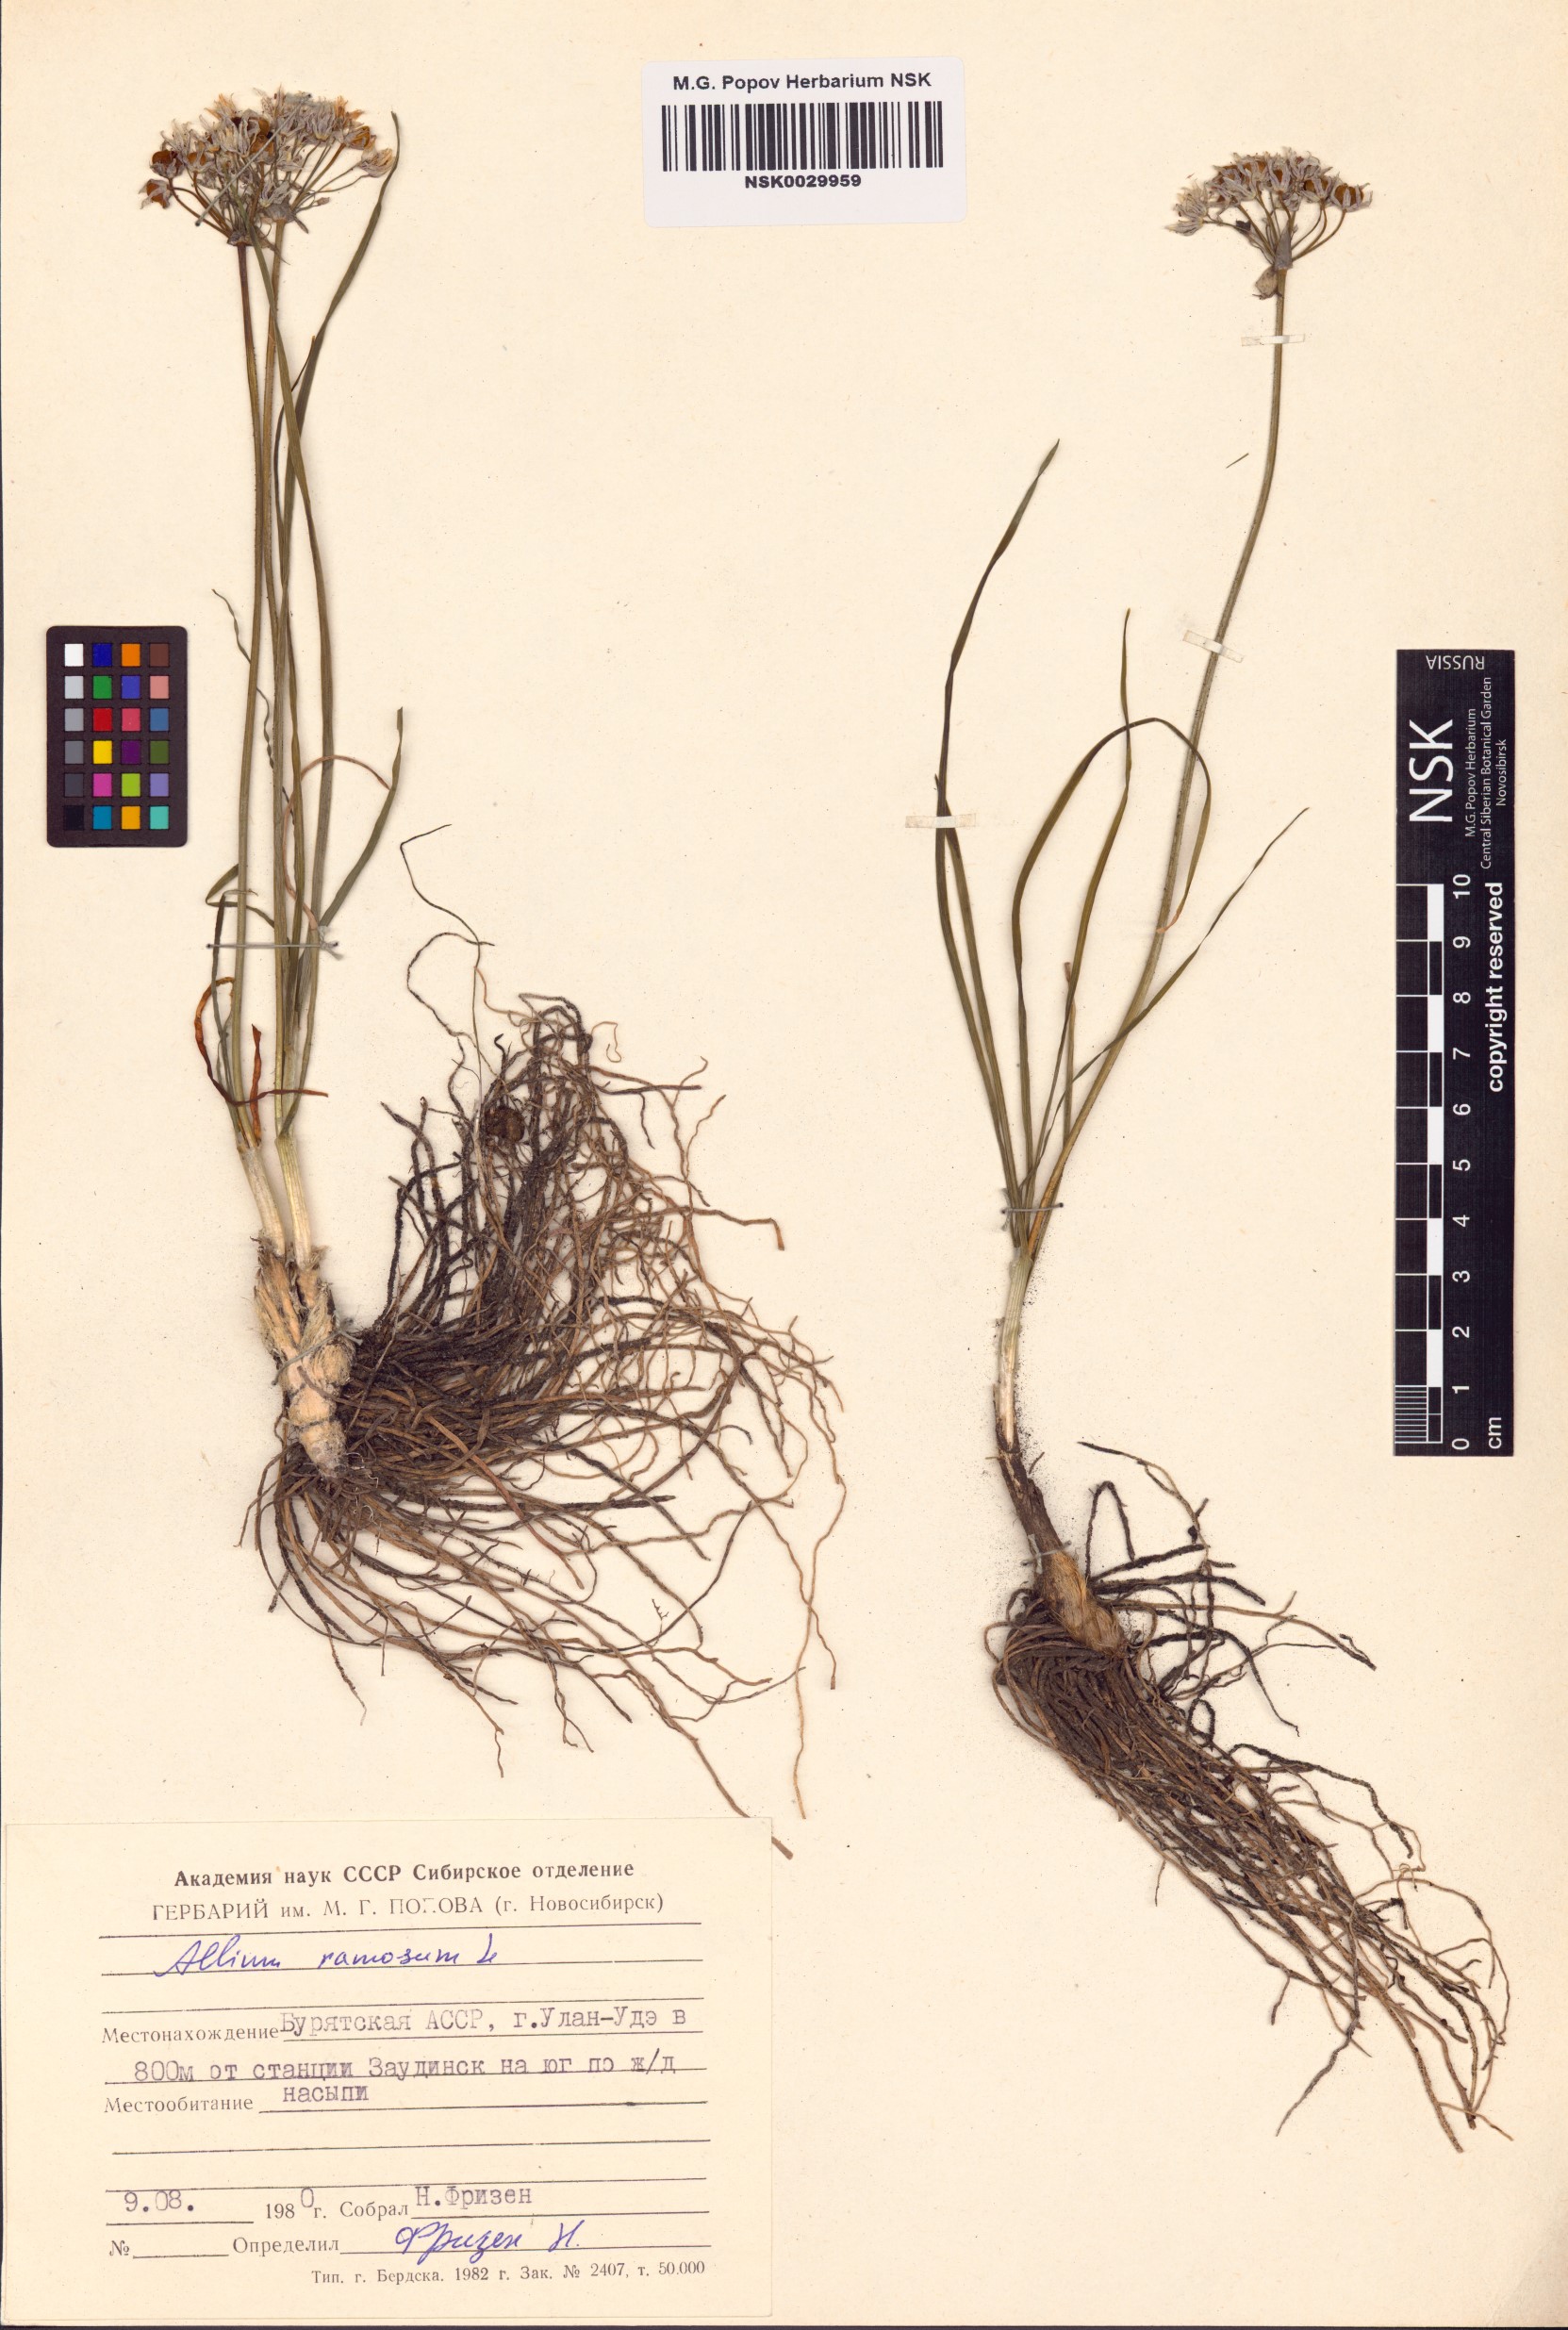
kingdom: Plantae
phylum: Tracheophyta
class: Liliopsida
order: Asparagales
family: Amaryllidaceae
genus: Allium
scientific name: Allium ramosum
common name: Fragrant garlic
